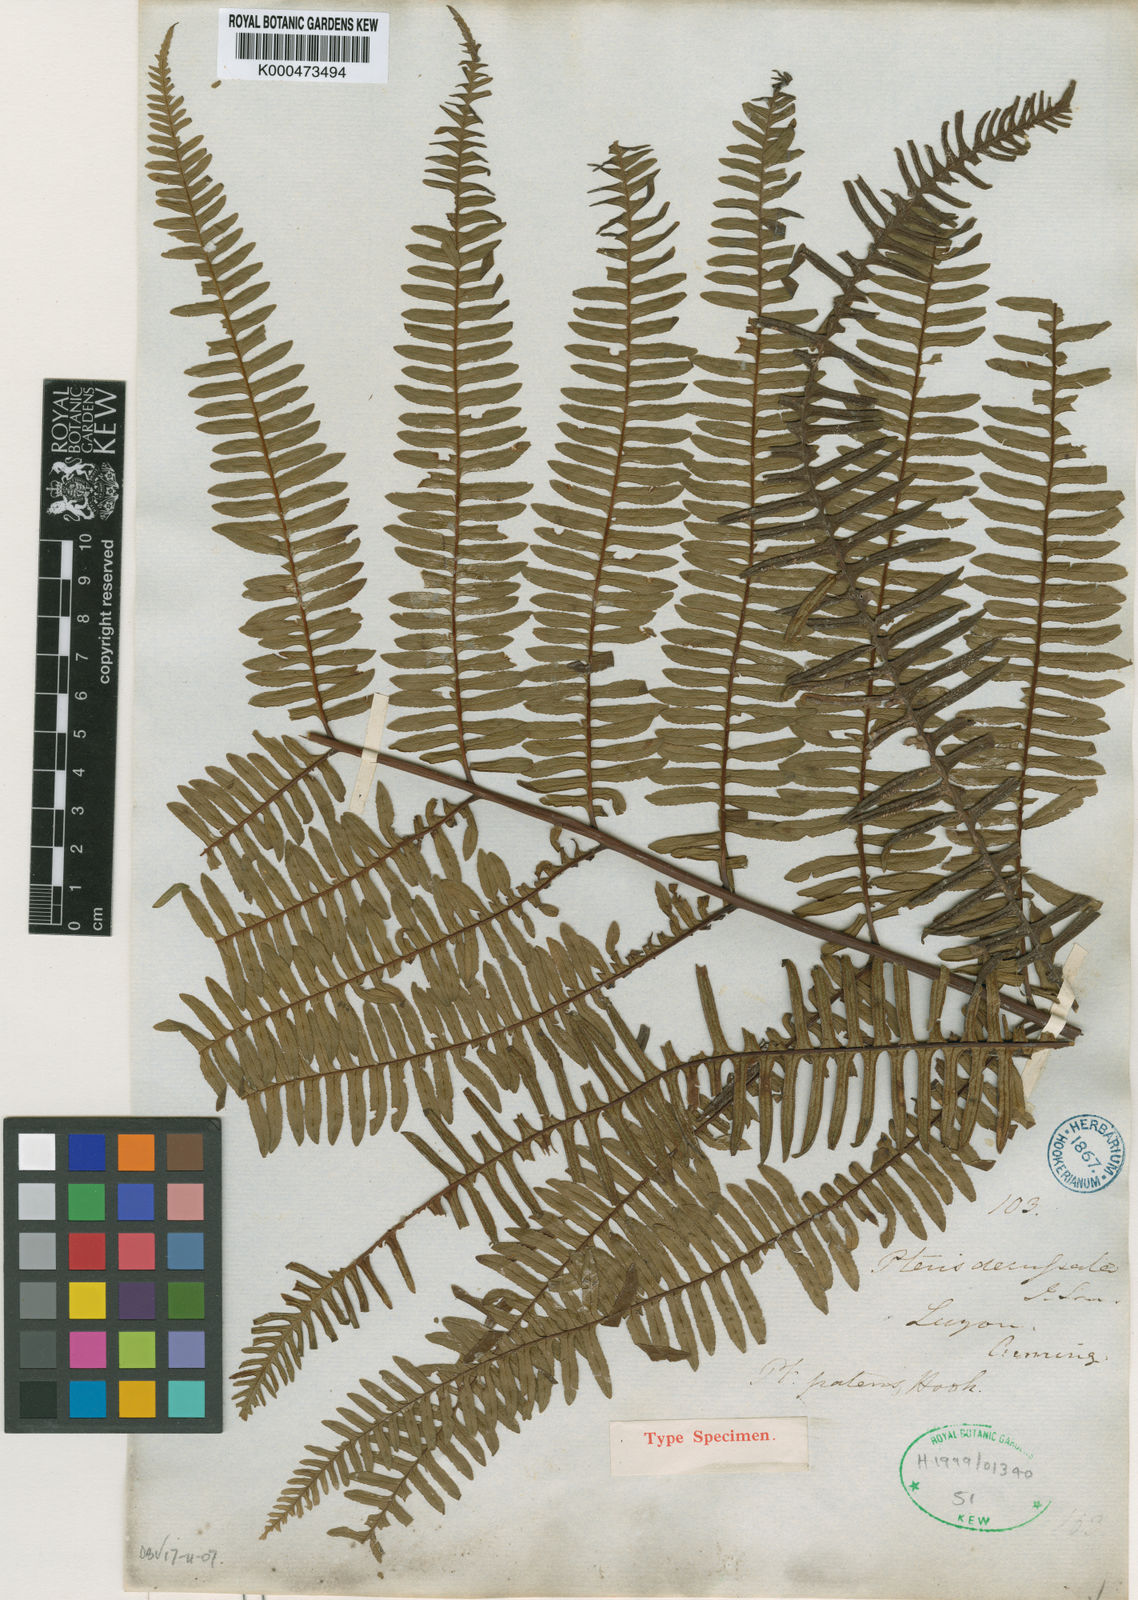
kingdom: Plantae
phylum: Tracheophyta
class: Polypodiopsida
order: Polypodiales
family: Pteridaceae
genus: Pteris
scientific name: Pteris mertensioides
